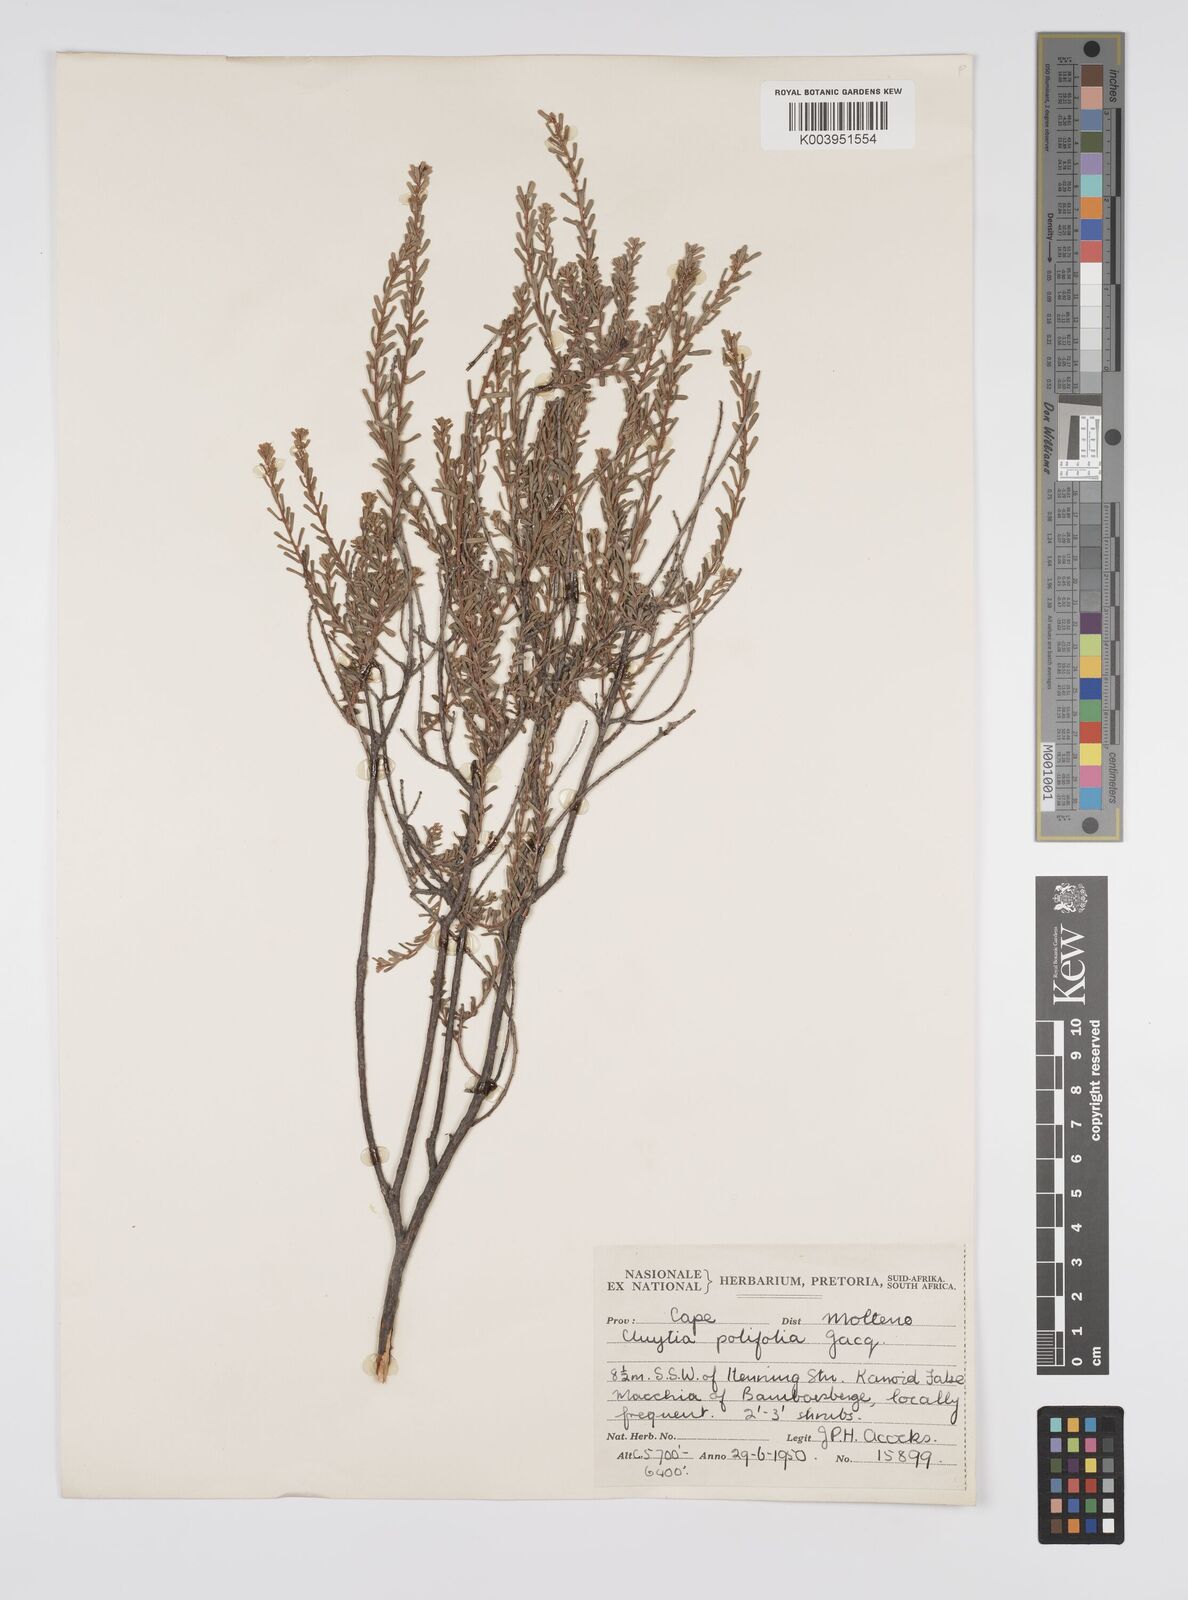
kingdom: Plantae
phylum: Tracheophyta
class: Magnoliopsida
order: Malpighiales
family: Peraceae
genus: Clutia
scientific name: Clutia
